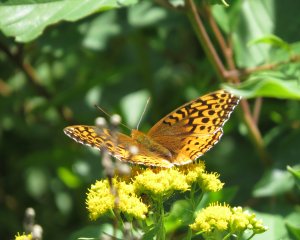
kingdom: Animalia
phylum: Arthropoda
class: Insecta
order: Lepidoptera
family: Nymphalidae
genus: Speyeria
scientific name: Speyeria cybele
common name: Great Spangled Fritillary
